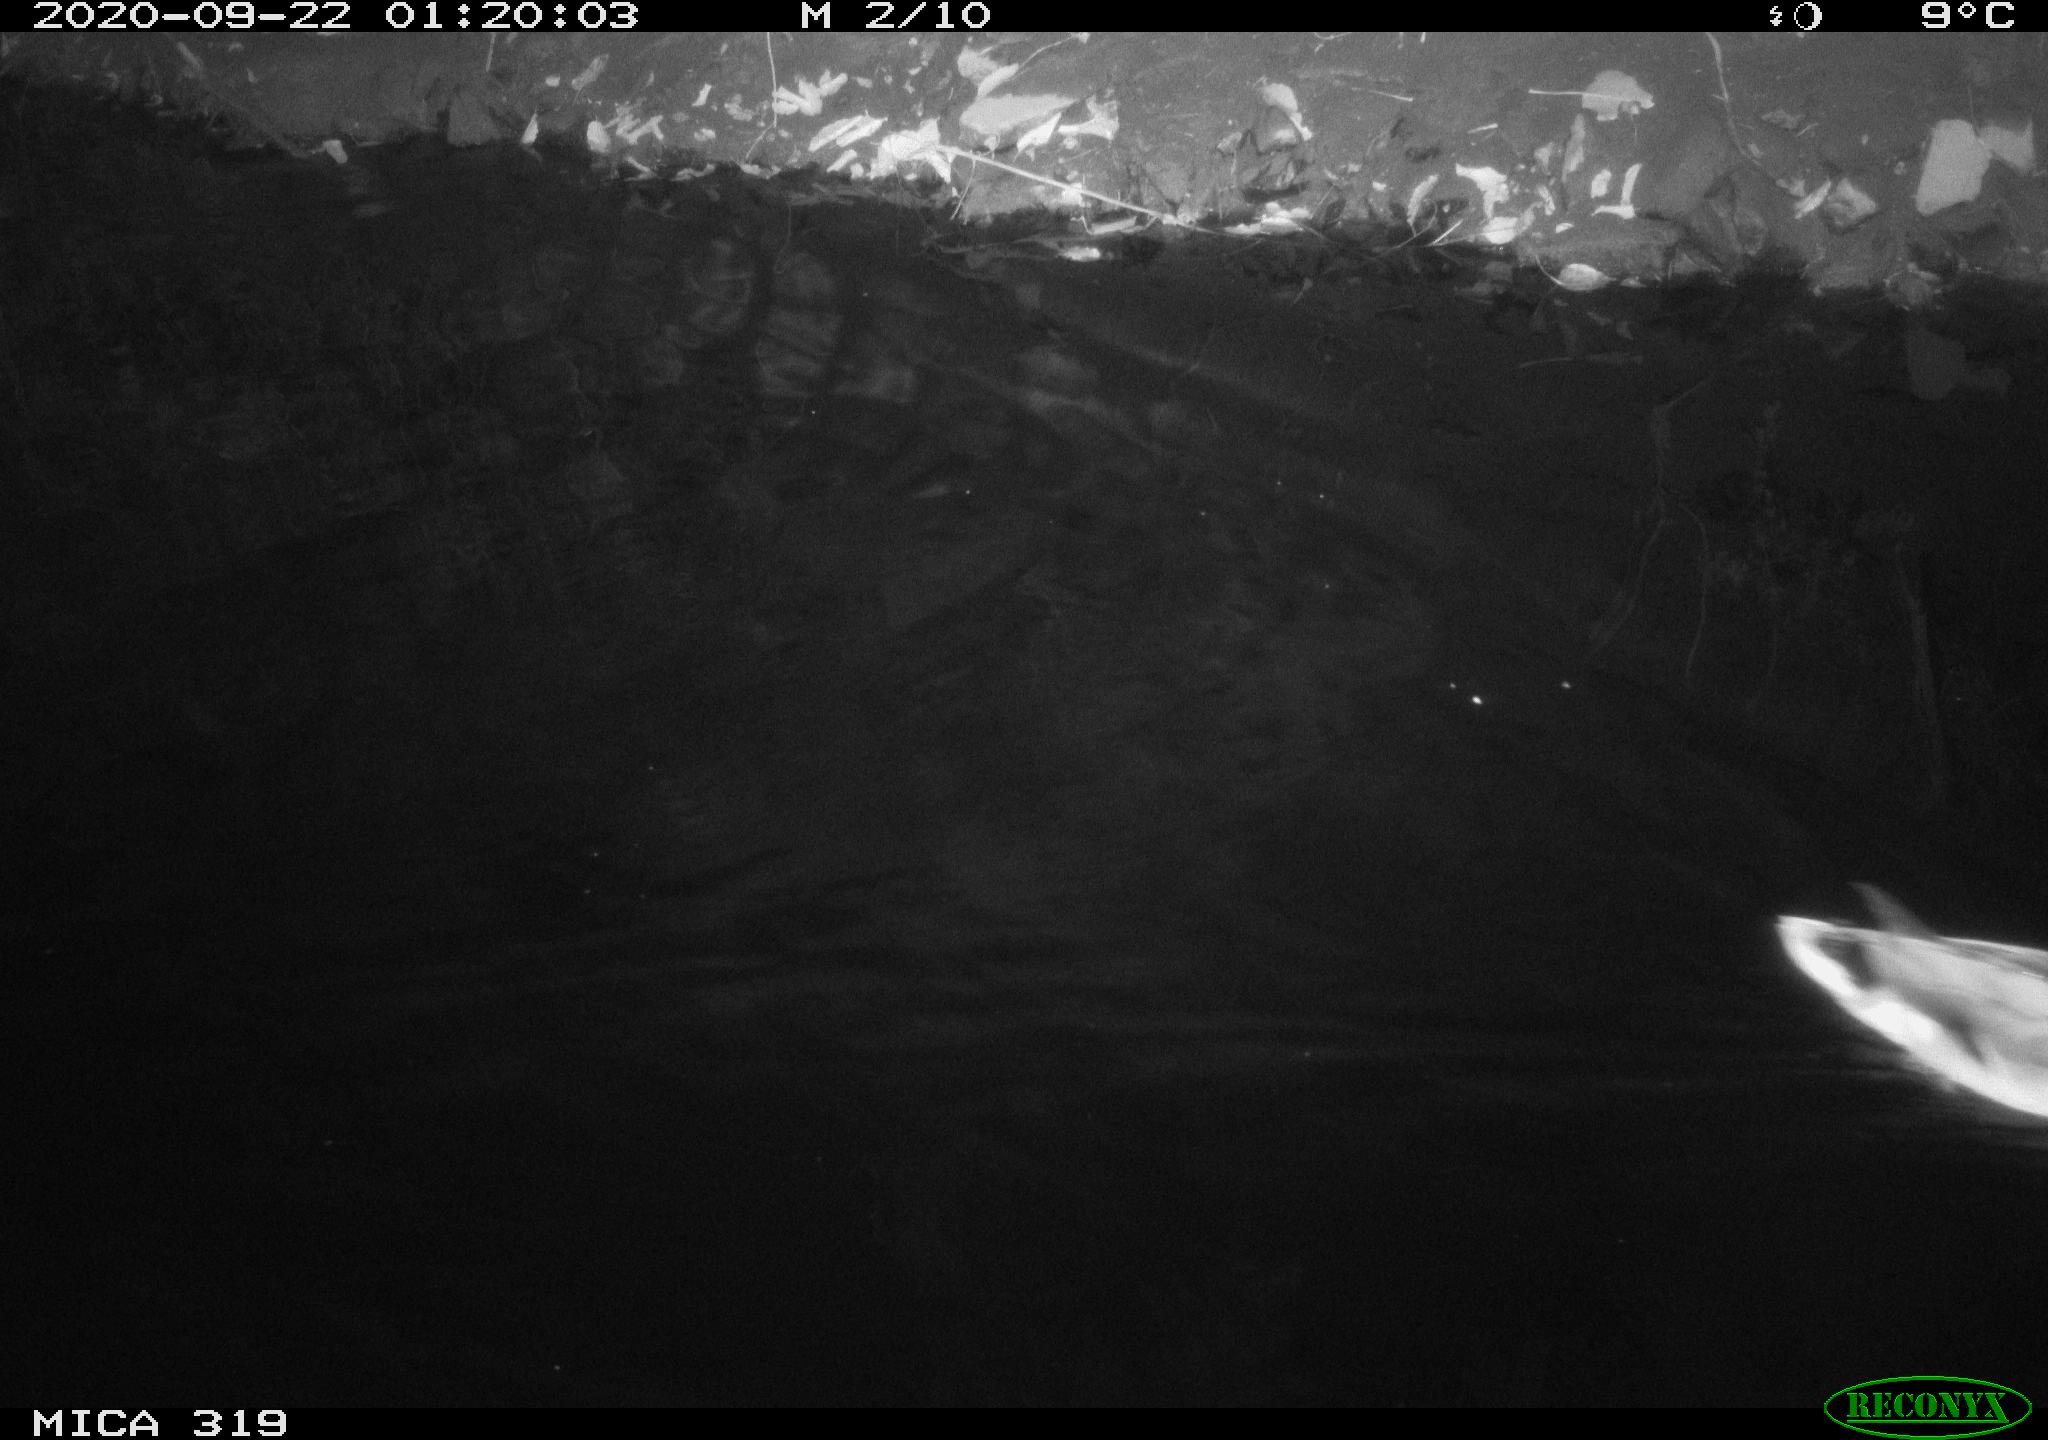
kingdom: Animalia
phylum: Chordata
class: Aves
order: Anseriformes
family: Anatidae
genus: Anas
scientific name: Anas platyrhynchos
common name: Mallard
